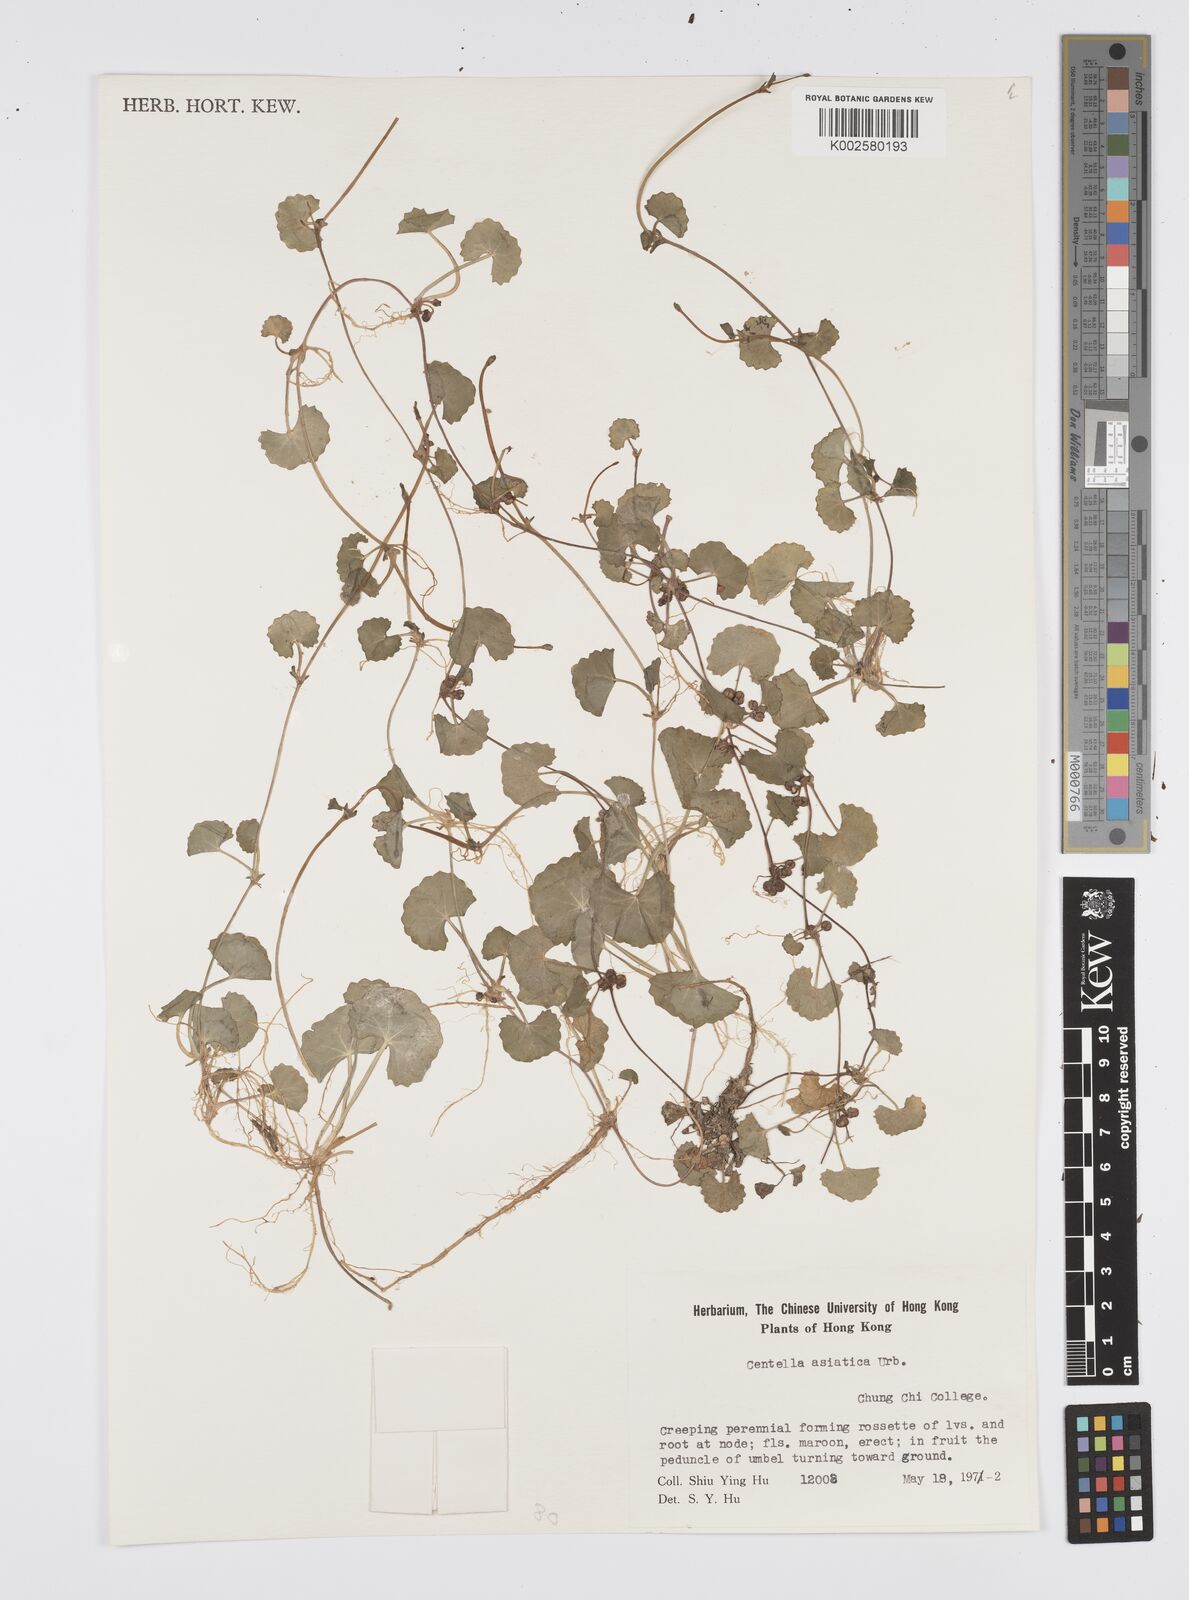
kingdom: Plantae
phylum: Tracheophyta
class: Magnoliopsida
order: Apiales
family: Apiaceae
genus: Centella
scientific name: Centella
